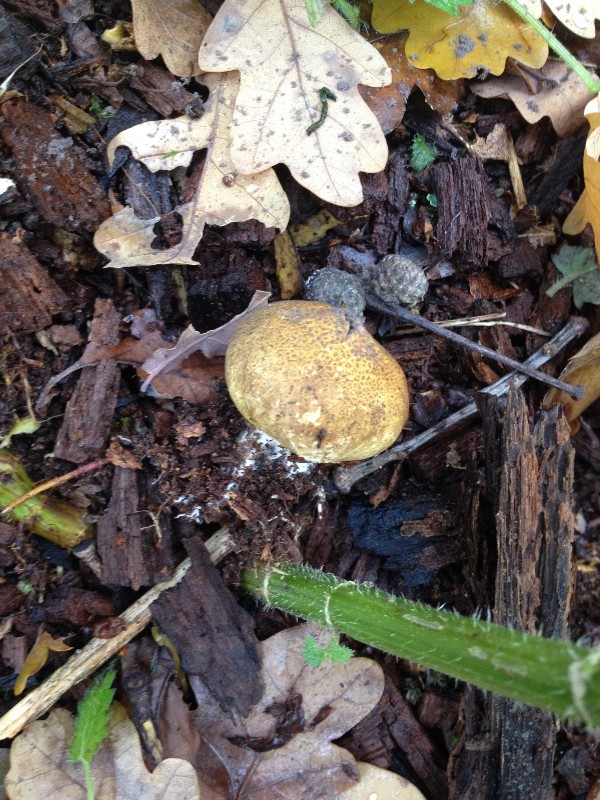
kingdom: Fungi
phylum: Basidiomycota
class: Agaricomycetes
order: Agaricales
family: Lycoperdaceae
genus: Apioperdon
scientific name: Apioperdon pyriforme
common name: pære-støvbold
